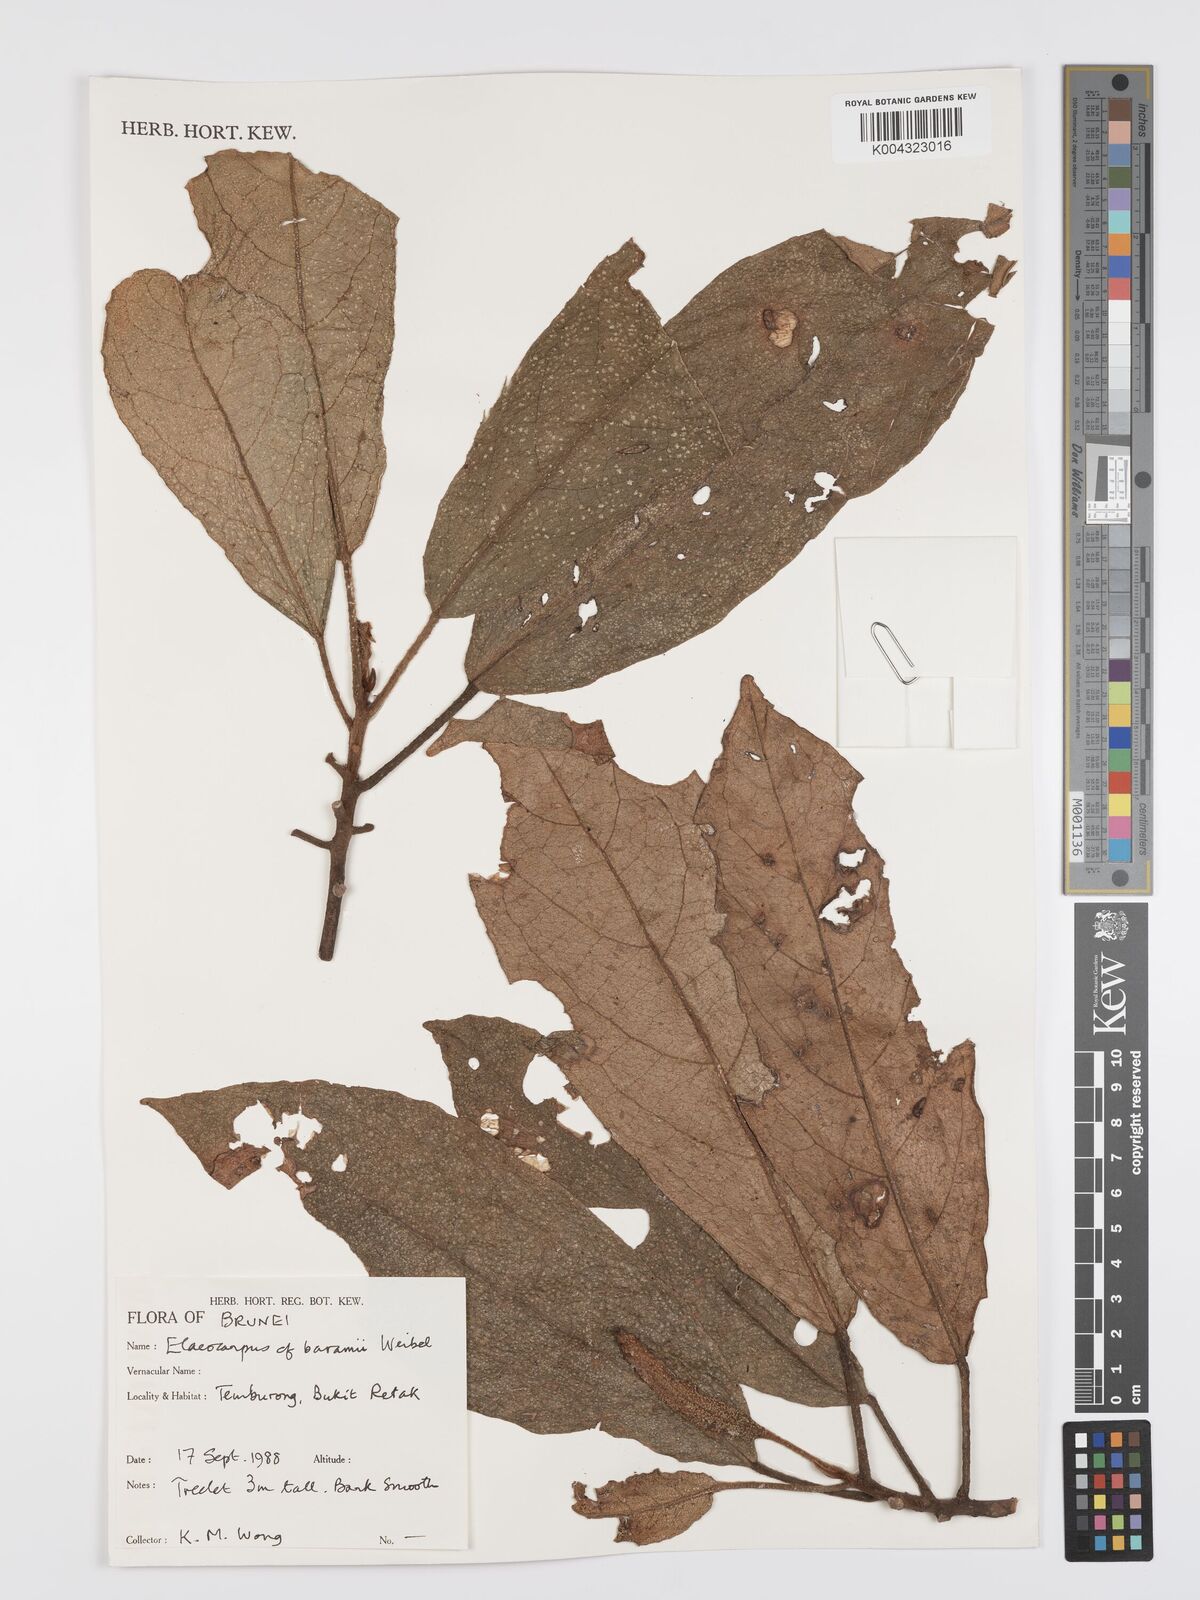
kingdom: Plantae
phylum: Tracheophyta
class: Magnoliopsida
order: Oxalidales
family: Elaeocarpaceae
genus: Elaeocarpus
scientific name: Elaeocarpus baramii
